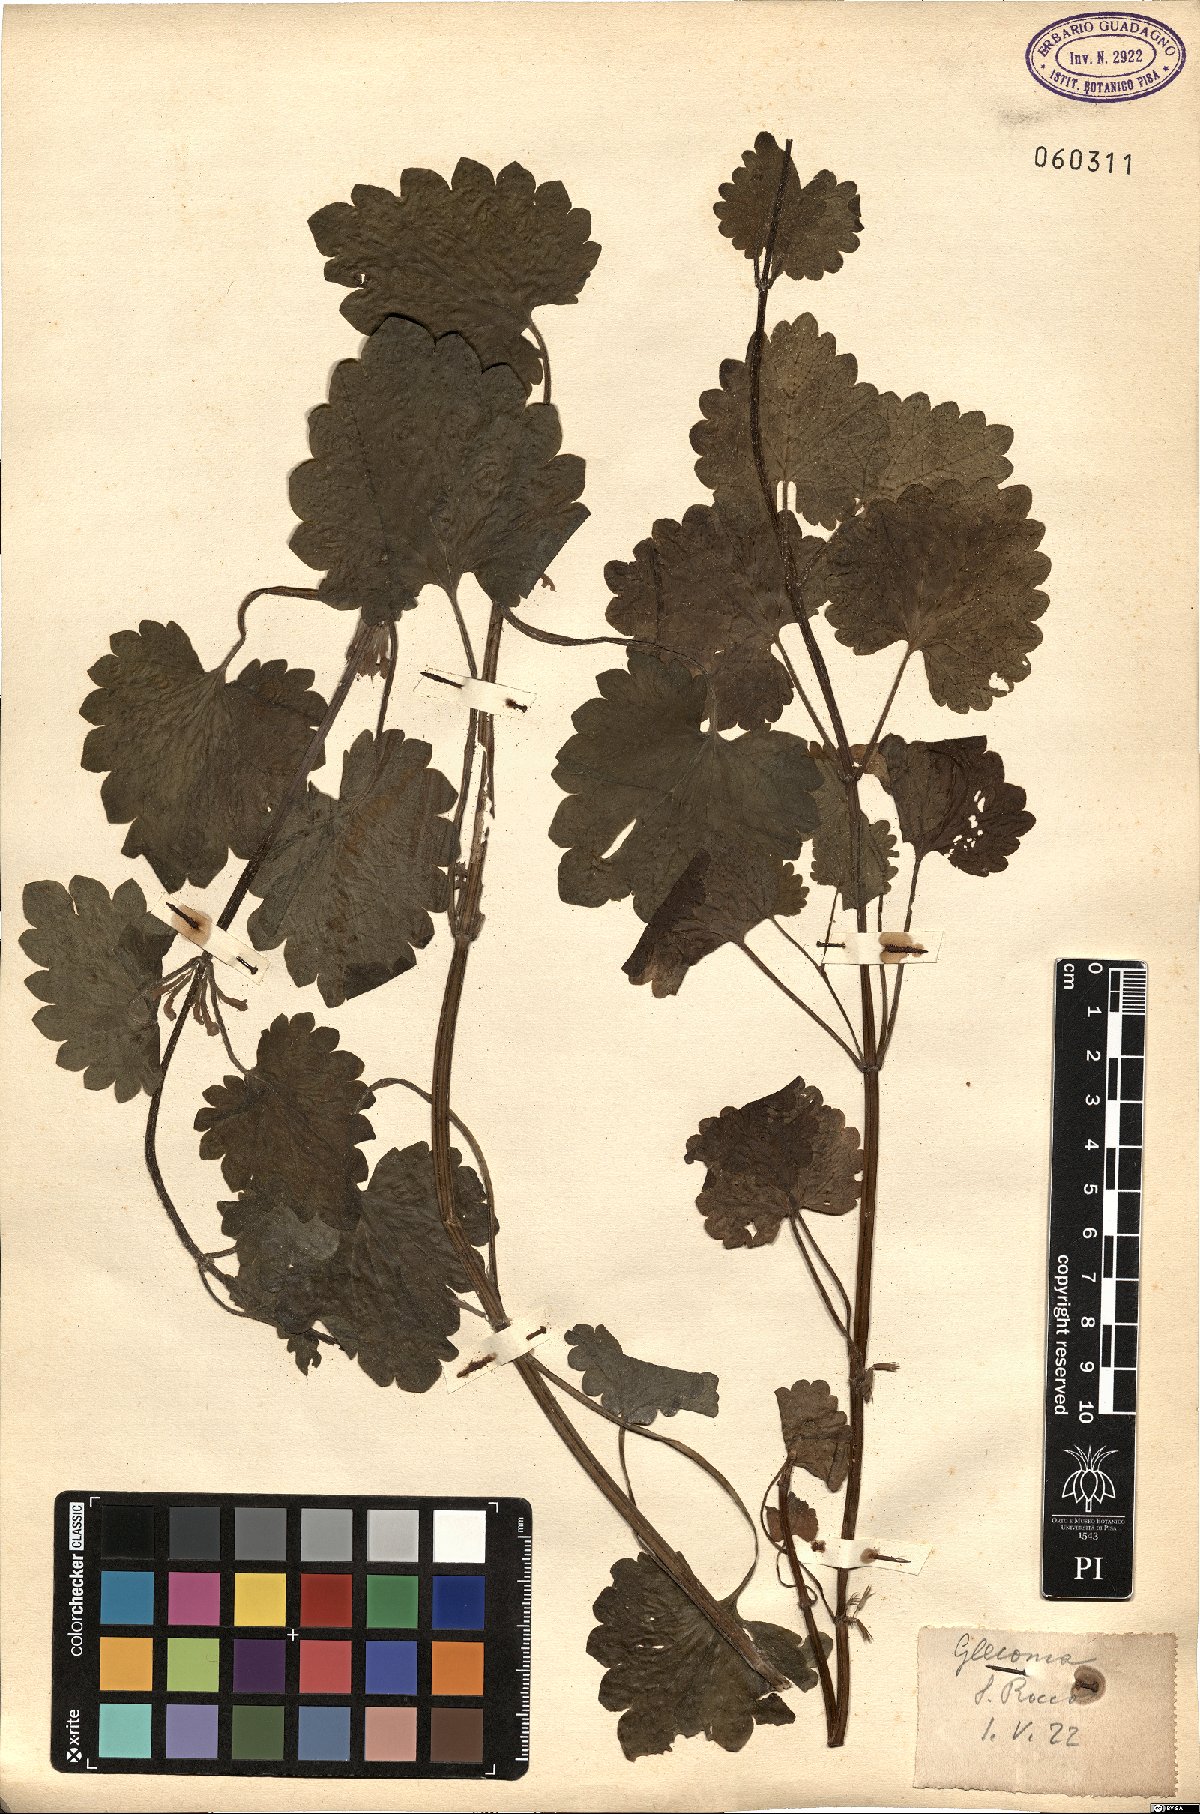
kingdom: Plantae
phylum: Tracheophyta
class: Magnoliopsida
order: Lamiales
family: Lamiaceae
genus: Glechoma
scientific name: Glechoma
